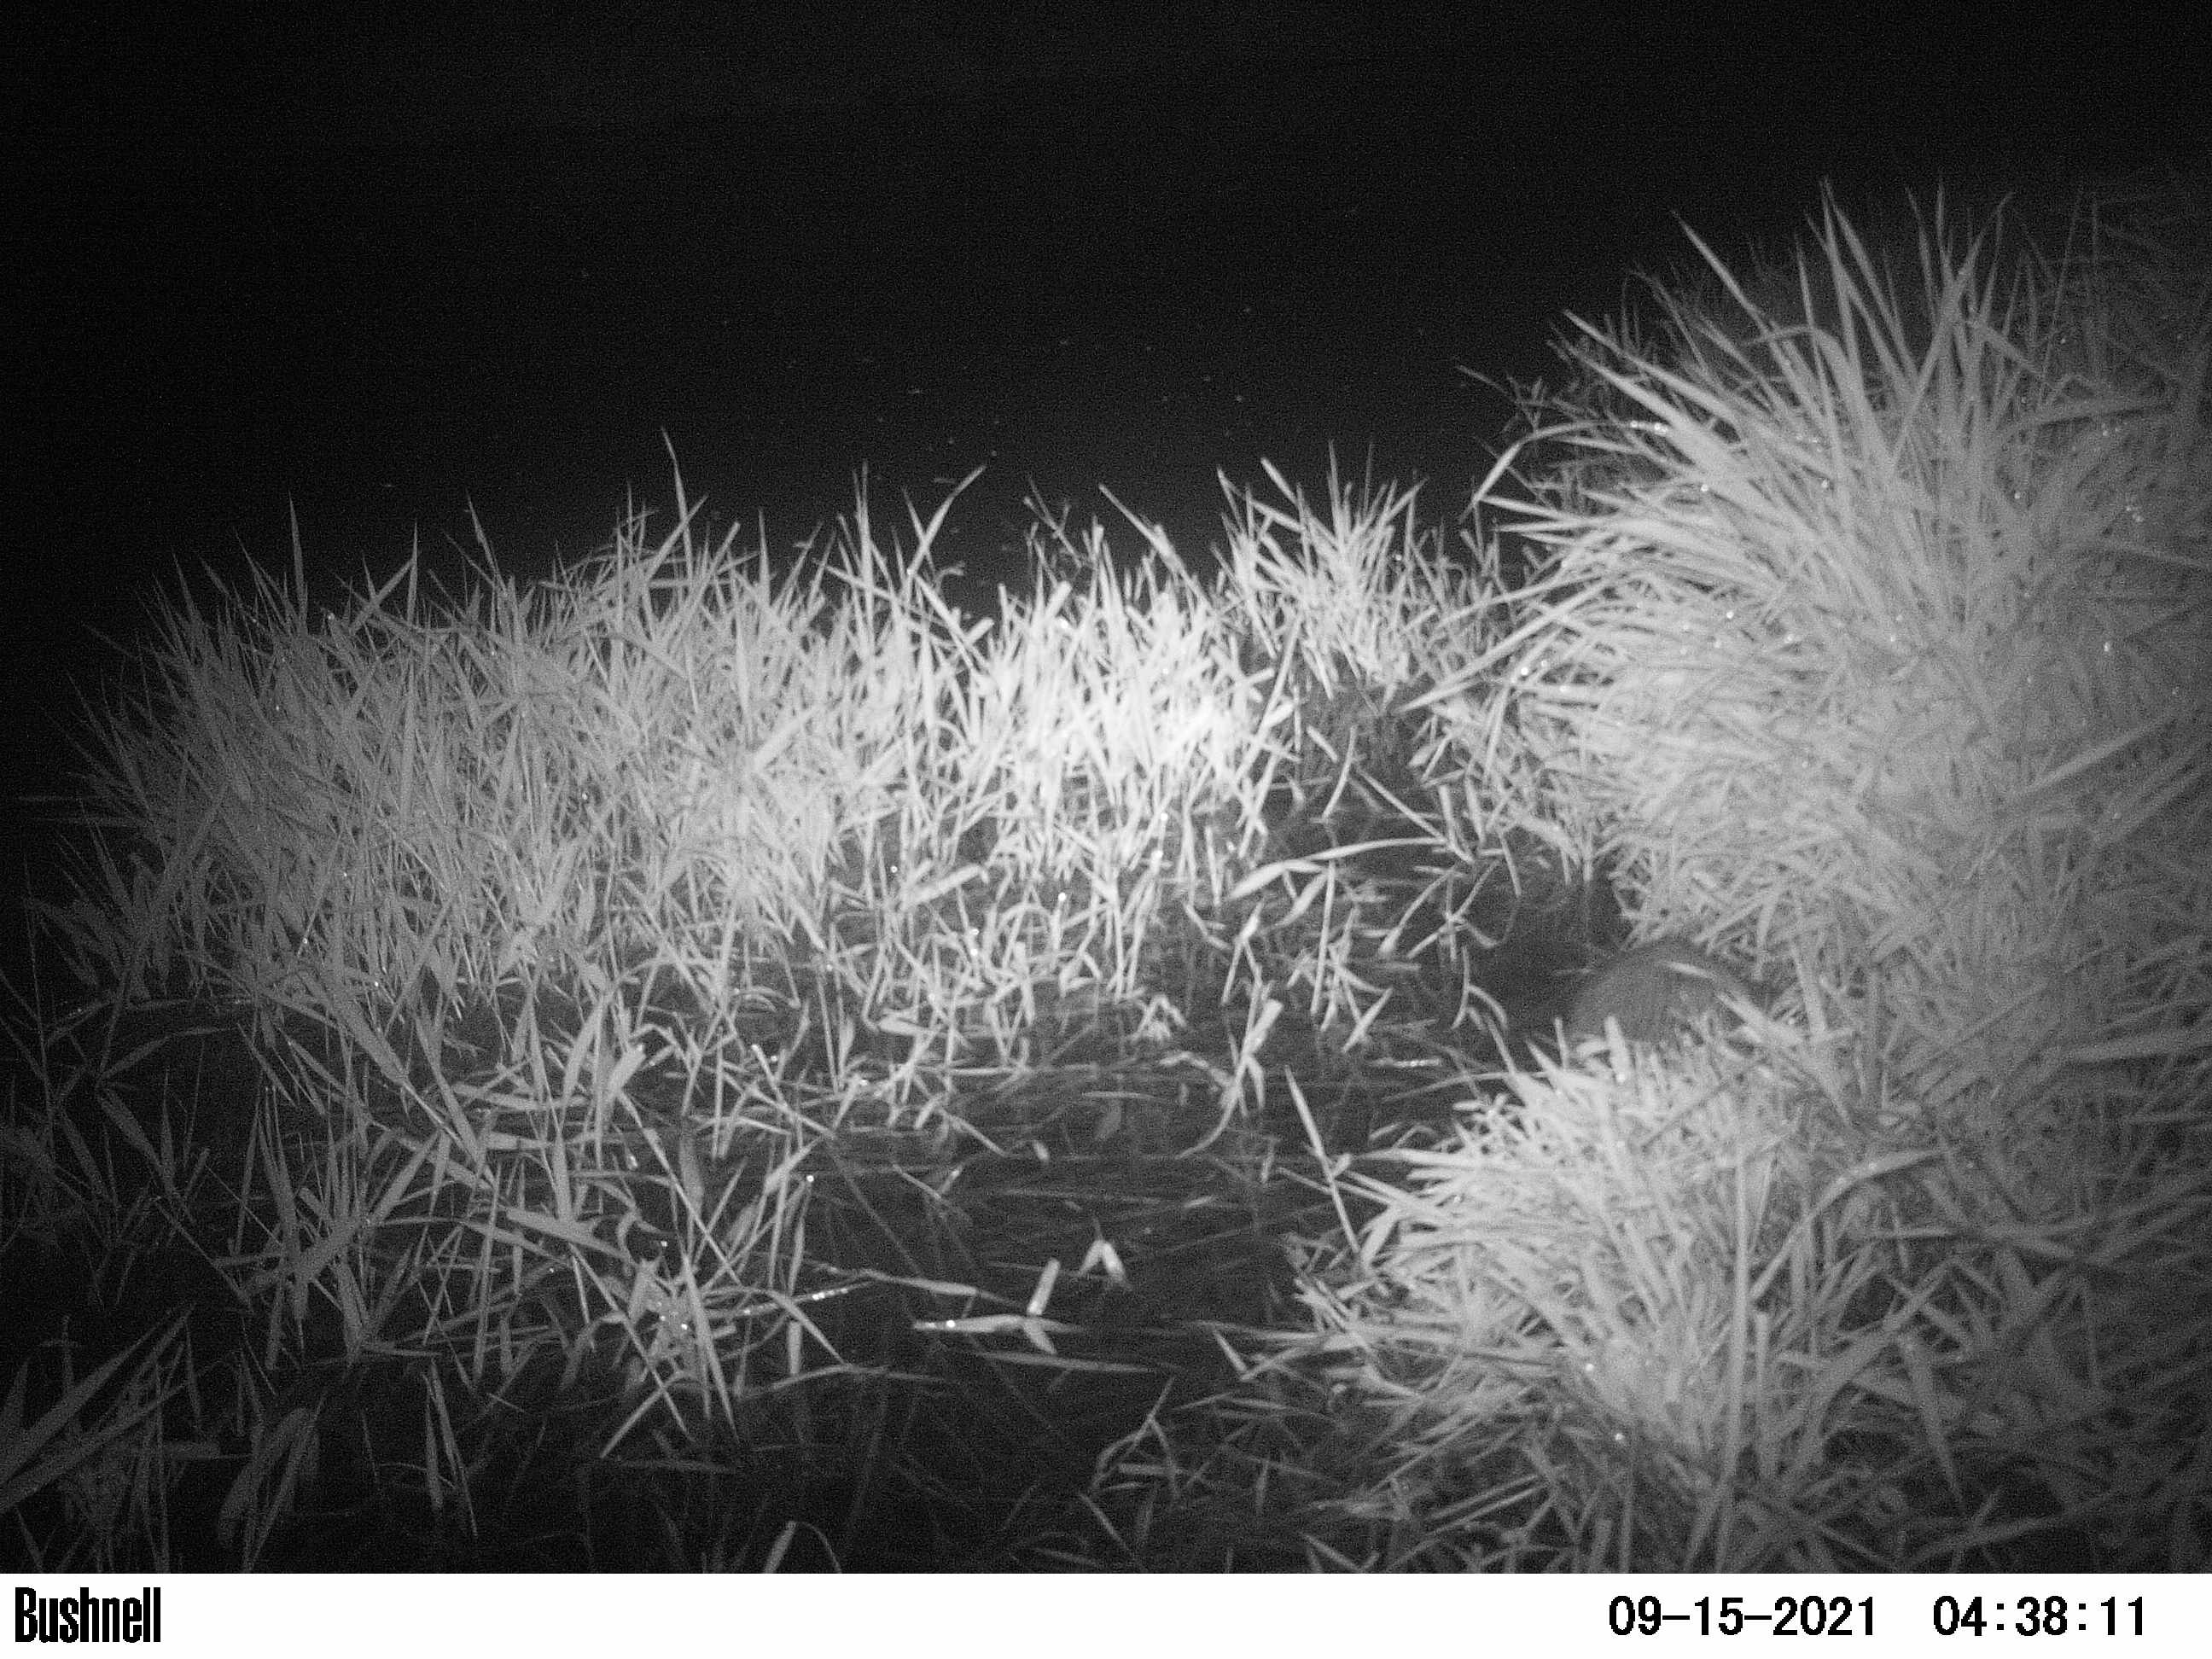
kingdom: Animalia
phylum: Chordata
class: Mammalia
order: Rodentia
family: Cricetidae
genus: Ondatra
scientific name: Ondatra zibethicus
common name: Muskrat
